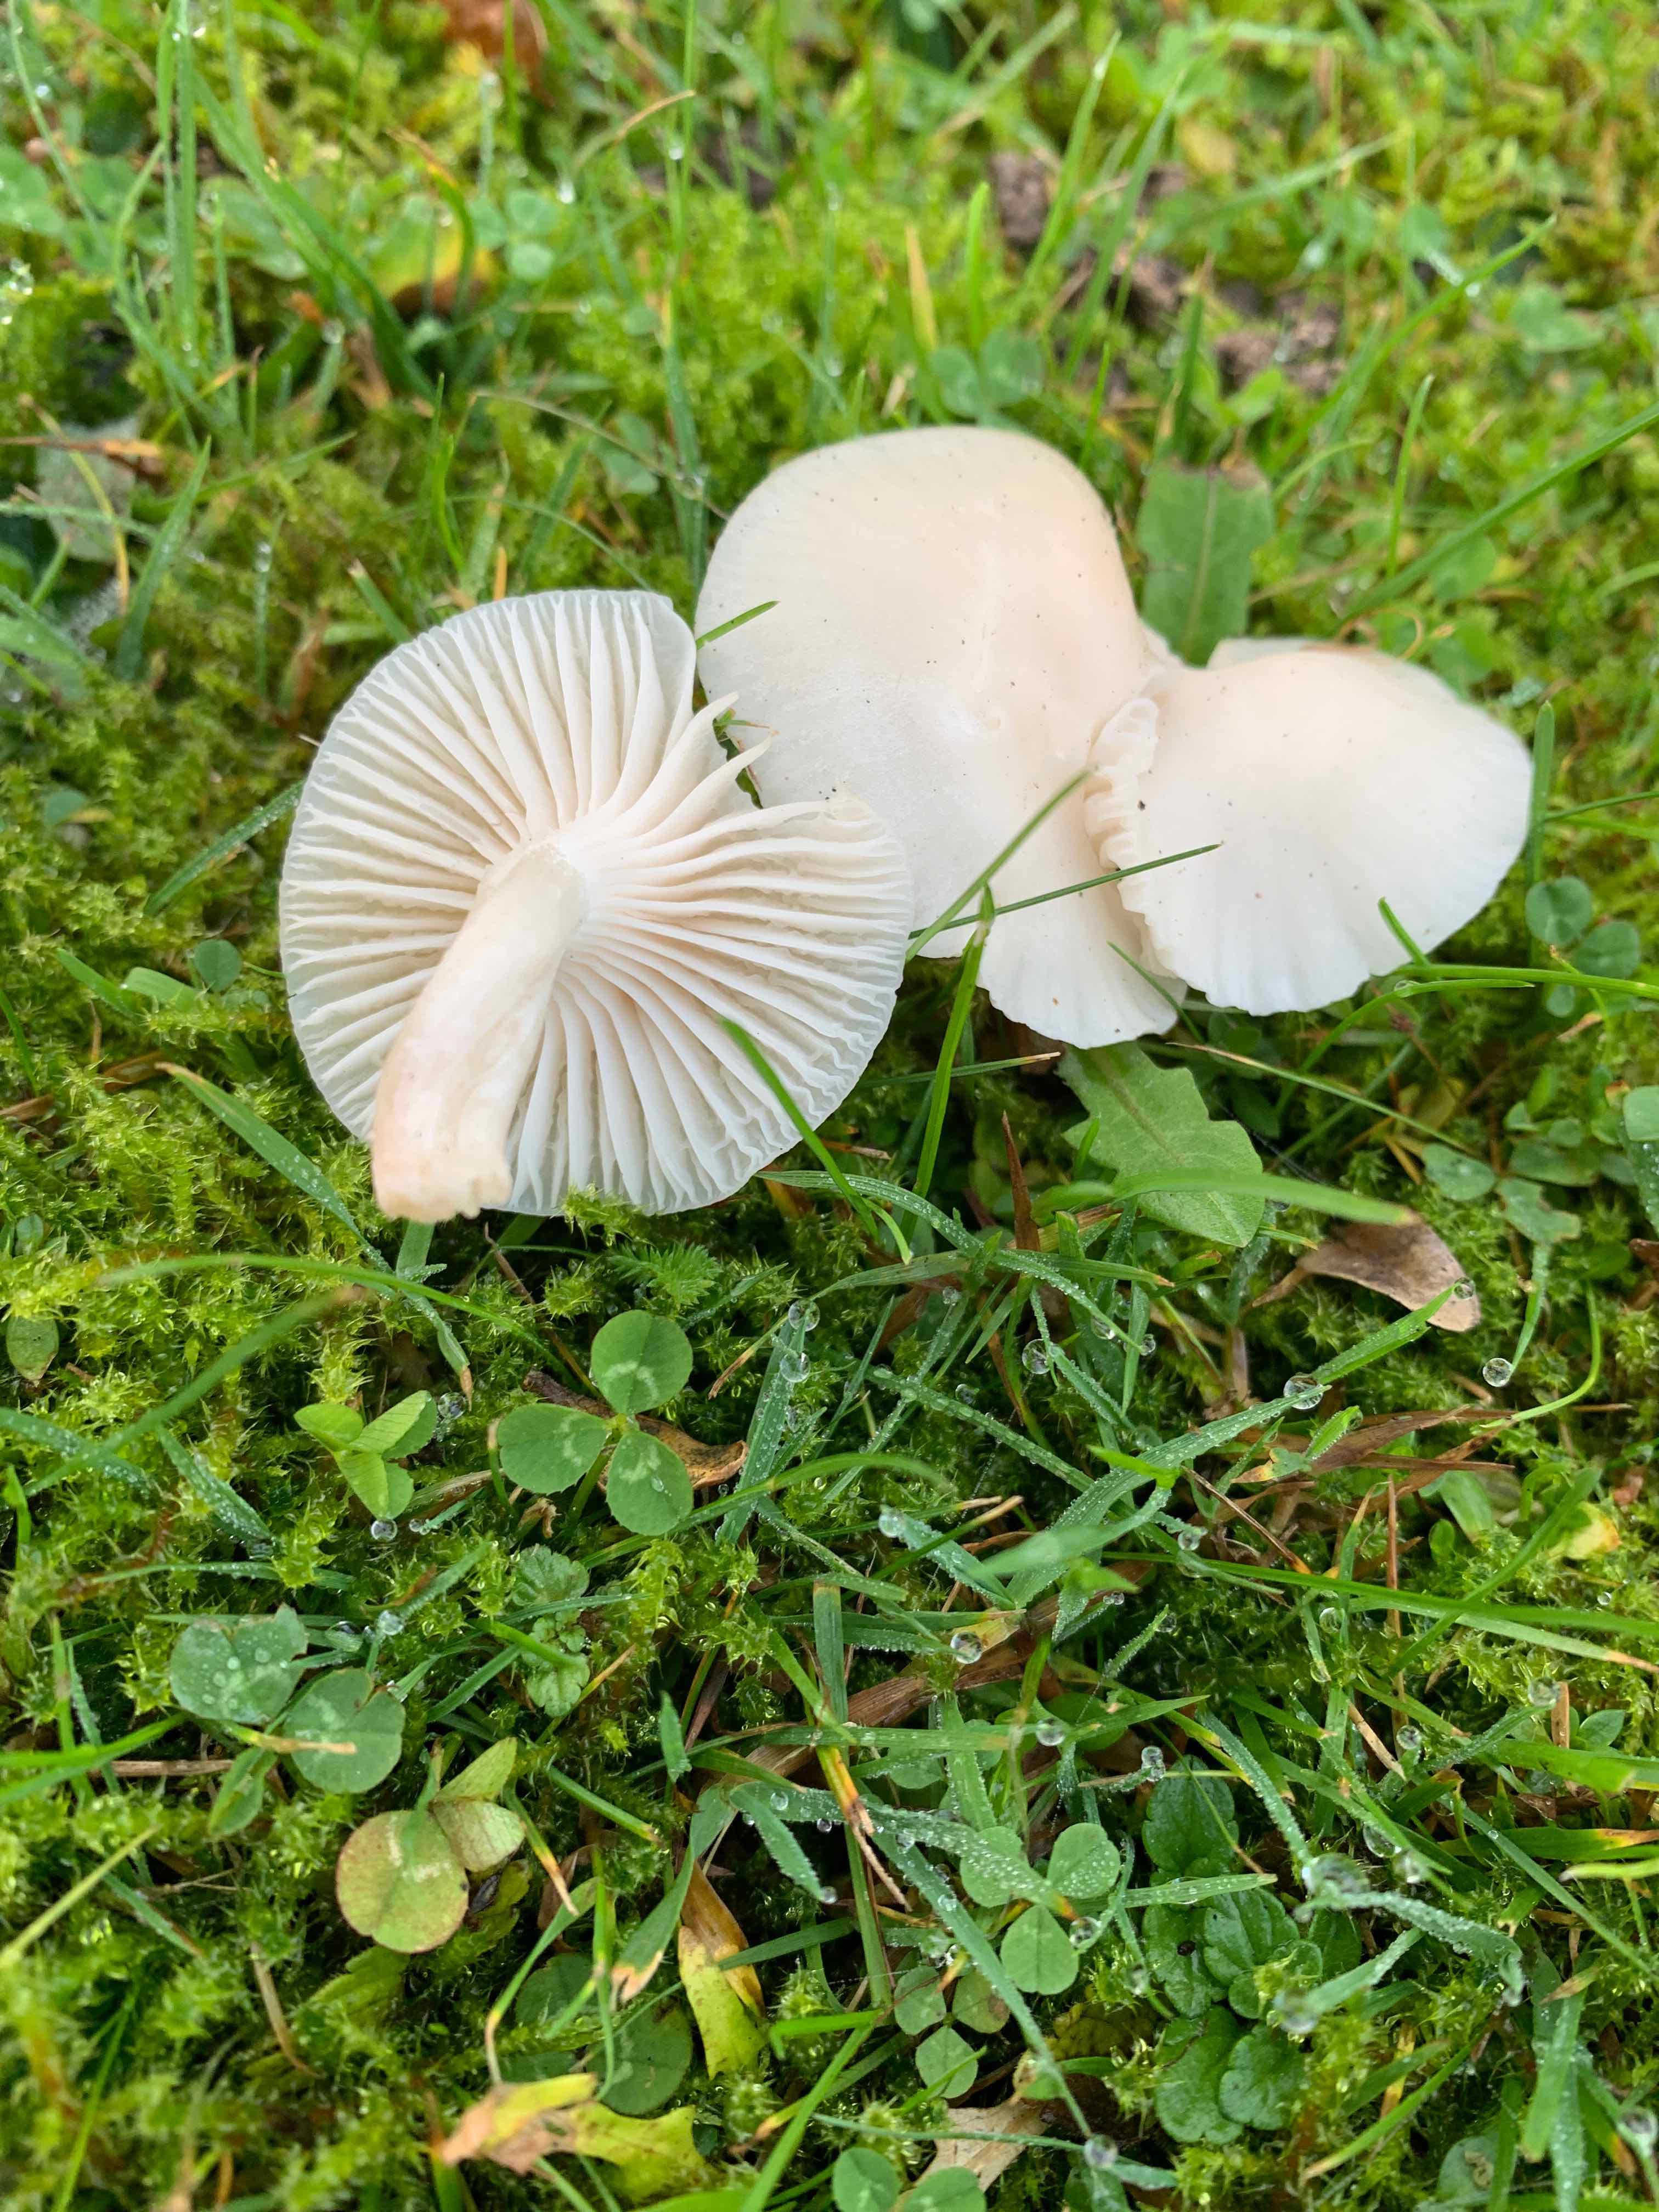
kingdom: Fungi
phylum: Basidiomycota
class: Agaricomycetes
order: Agaricales
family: Hygrophoraceae
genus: Cuphophyllus
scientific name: Cuphophyllus virgineus
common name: snehvid vokshat
